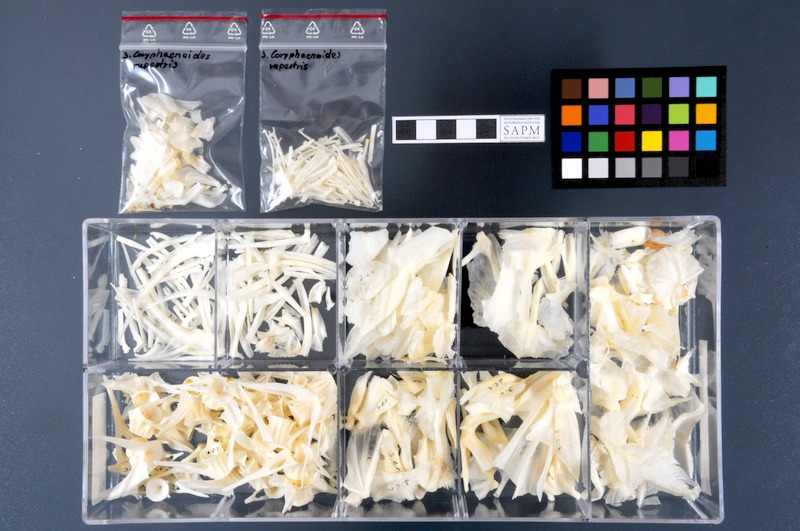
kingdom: Animalia
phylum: Chordata
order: Gadiformes
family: Macrouridae
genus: Coryphaenoides
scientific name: Coryphaenoides rupestris
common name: Rock grenadier
